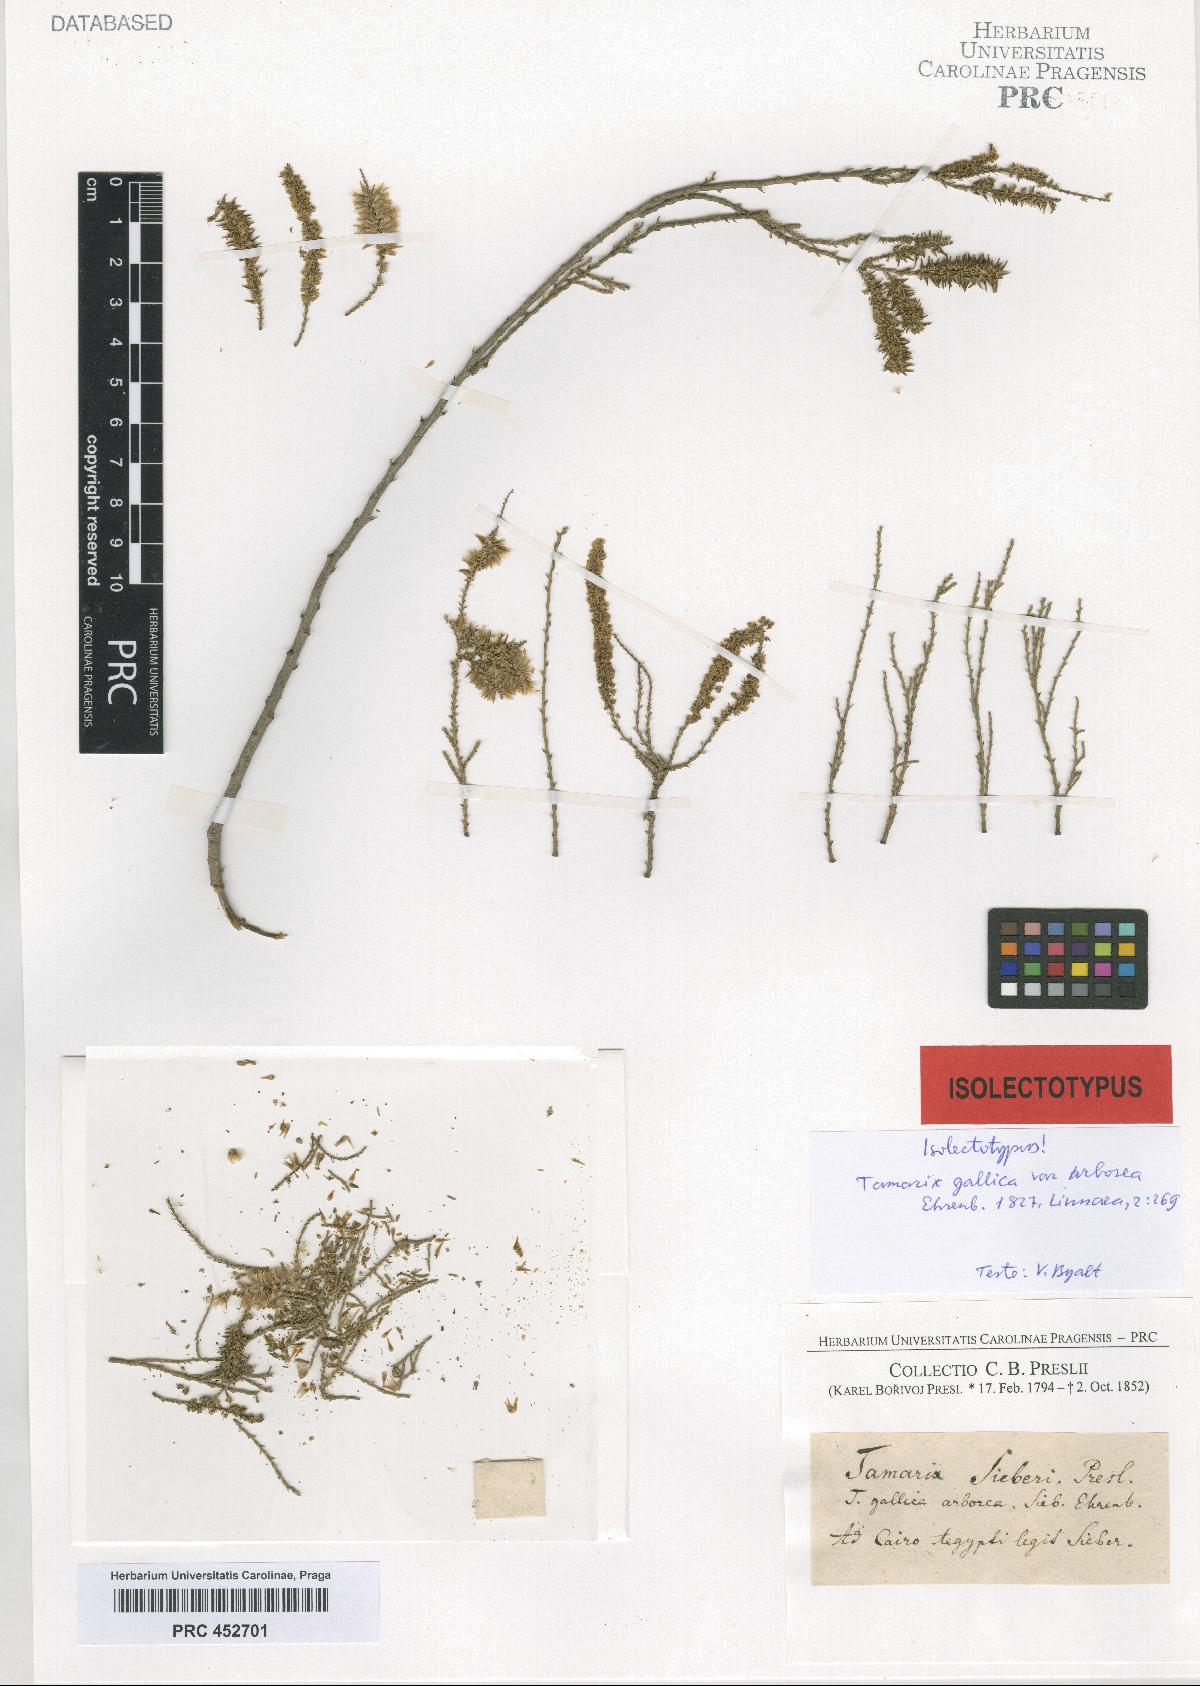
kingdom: Plantae
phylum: Tracheophyta
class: Magnoliopsida
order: Caryophyllales
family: Tamaricaceae
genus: Tamarix
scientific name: Tamarix
